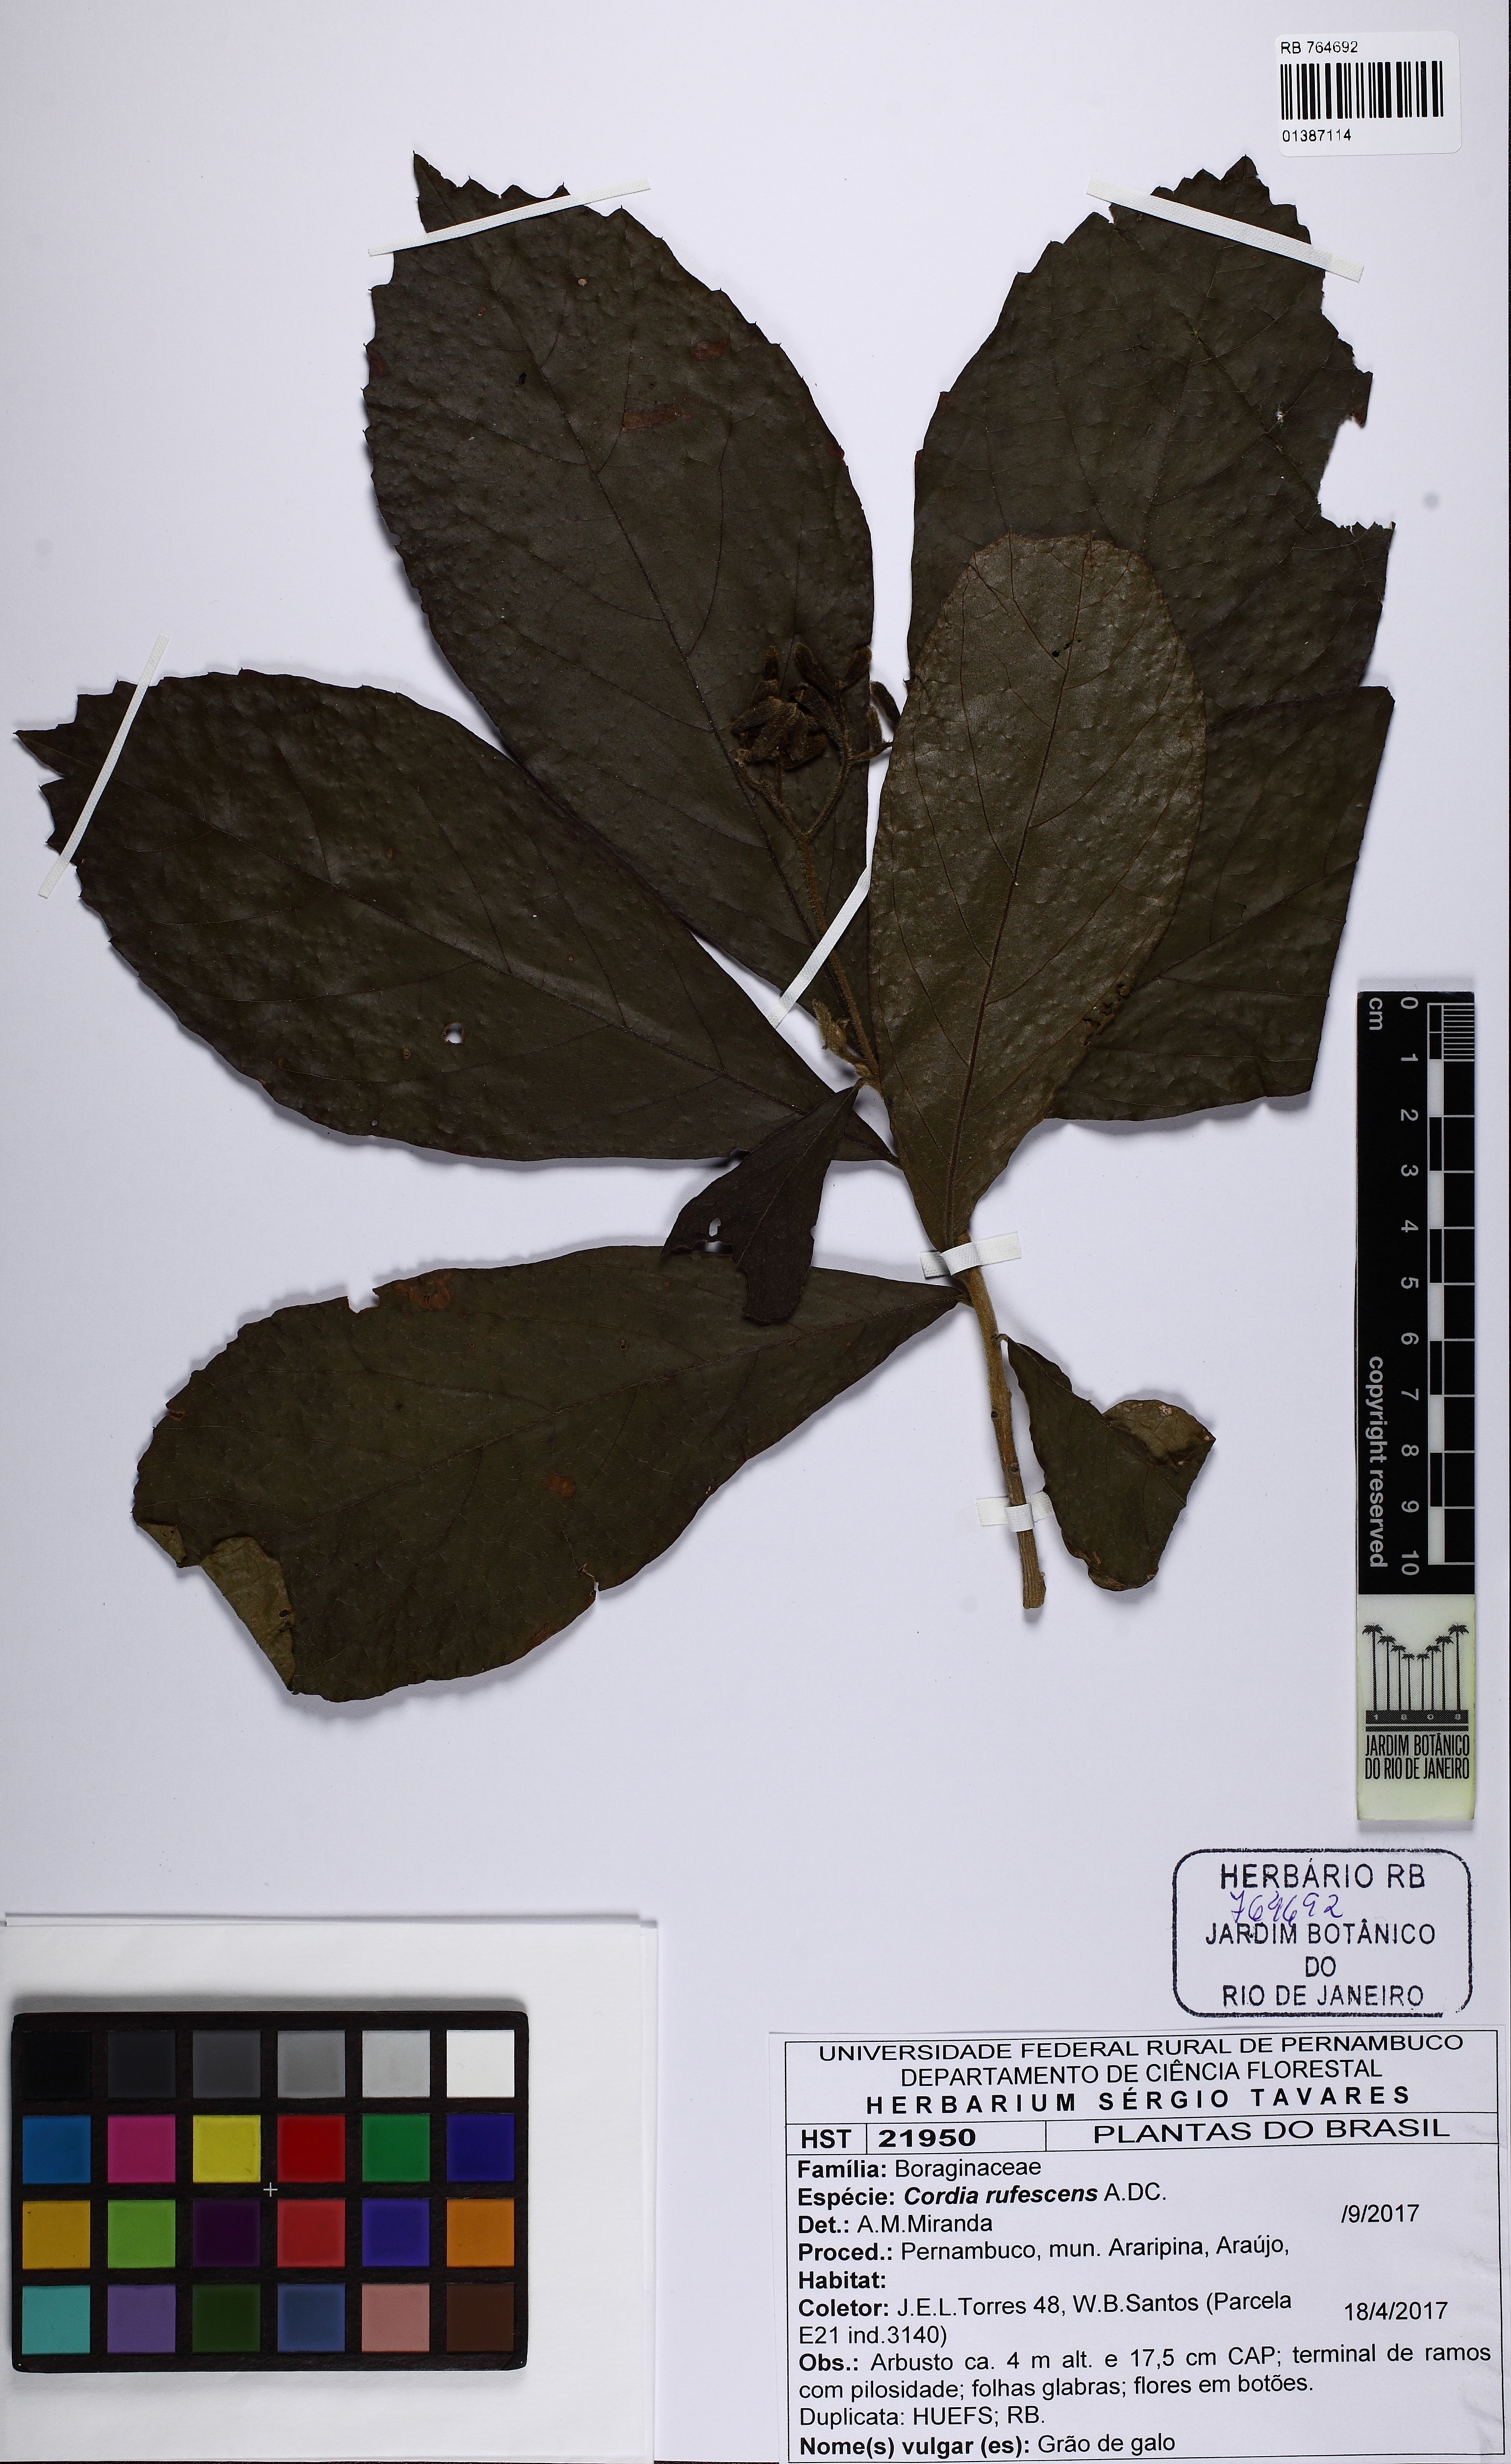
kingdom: Plantae
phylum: Tracheophyta
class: Magnoliopsida
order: Boraginales
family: Cordiaceae
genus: Cordia
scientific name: Cordia rufescens
